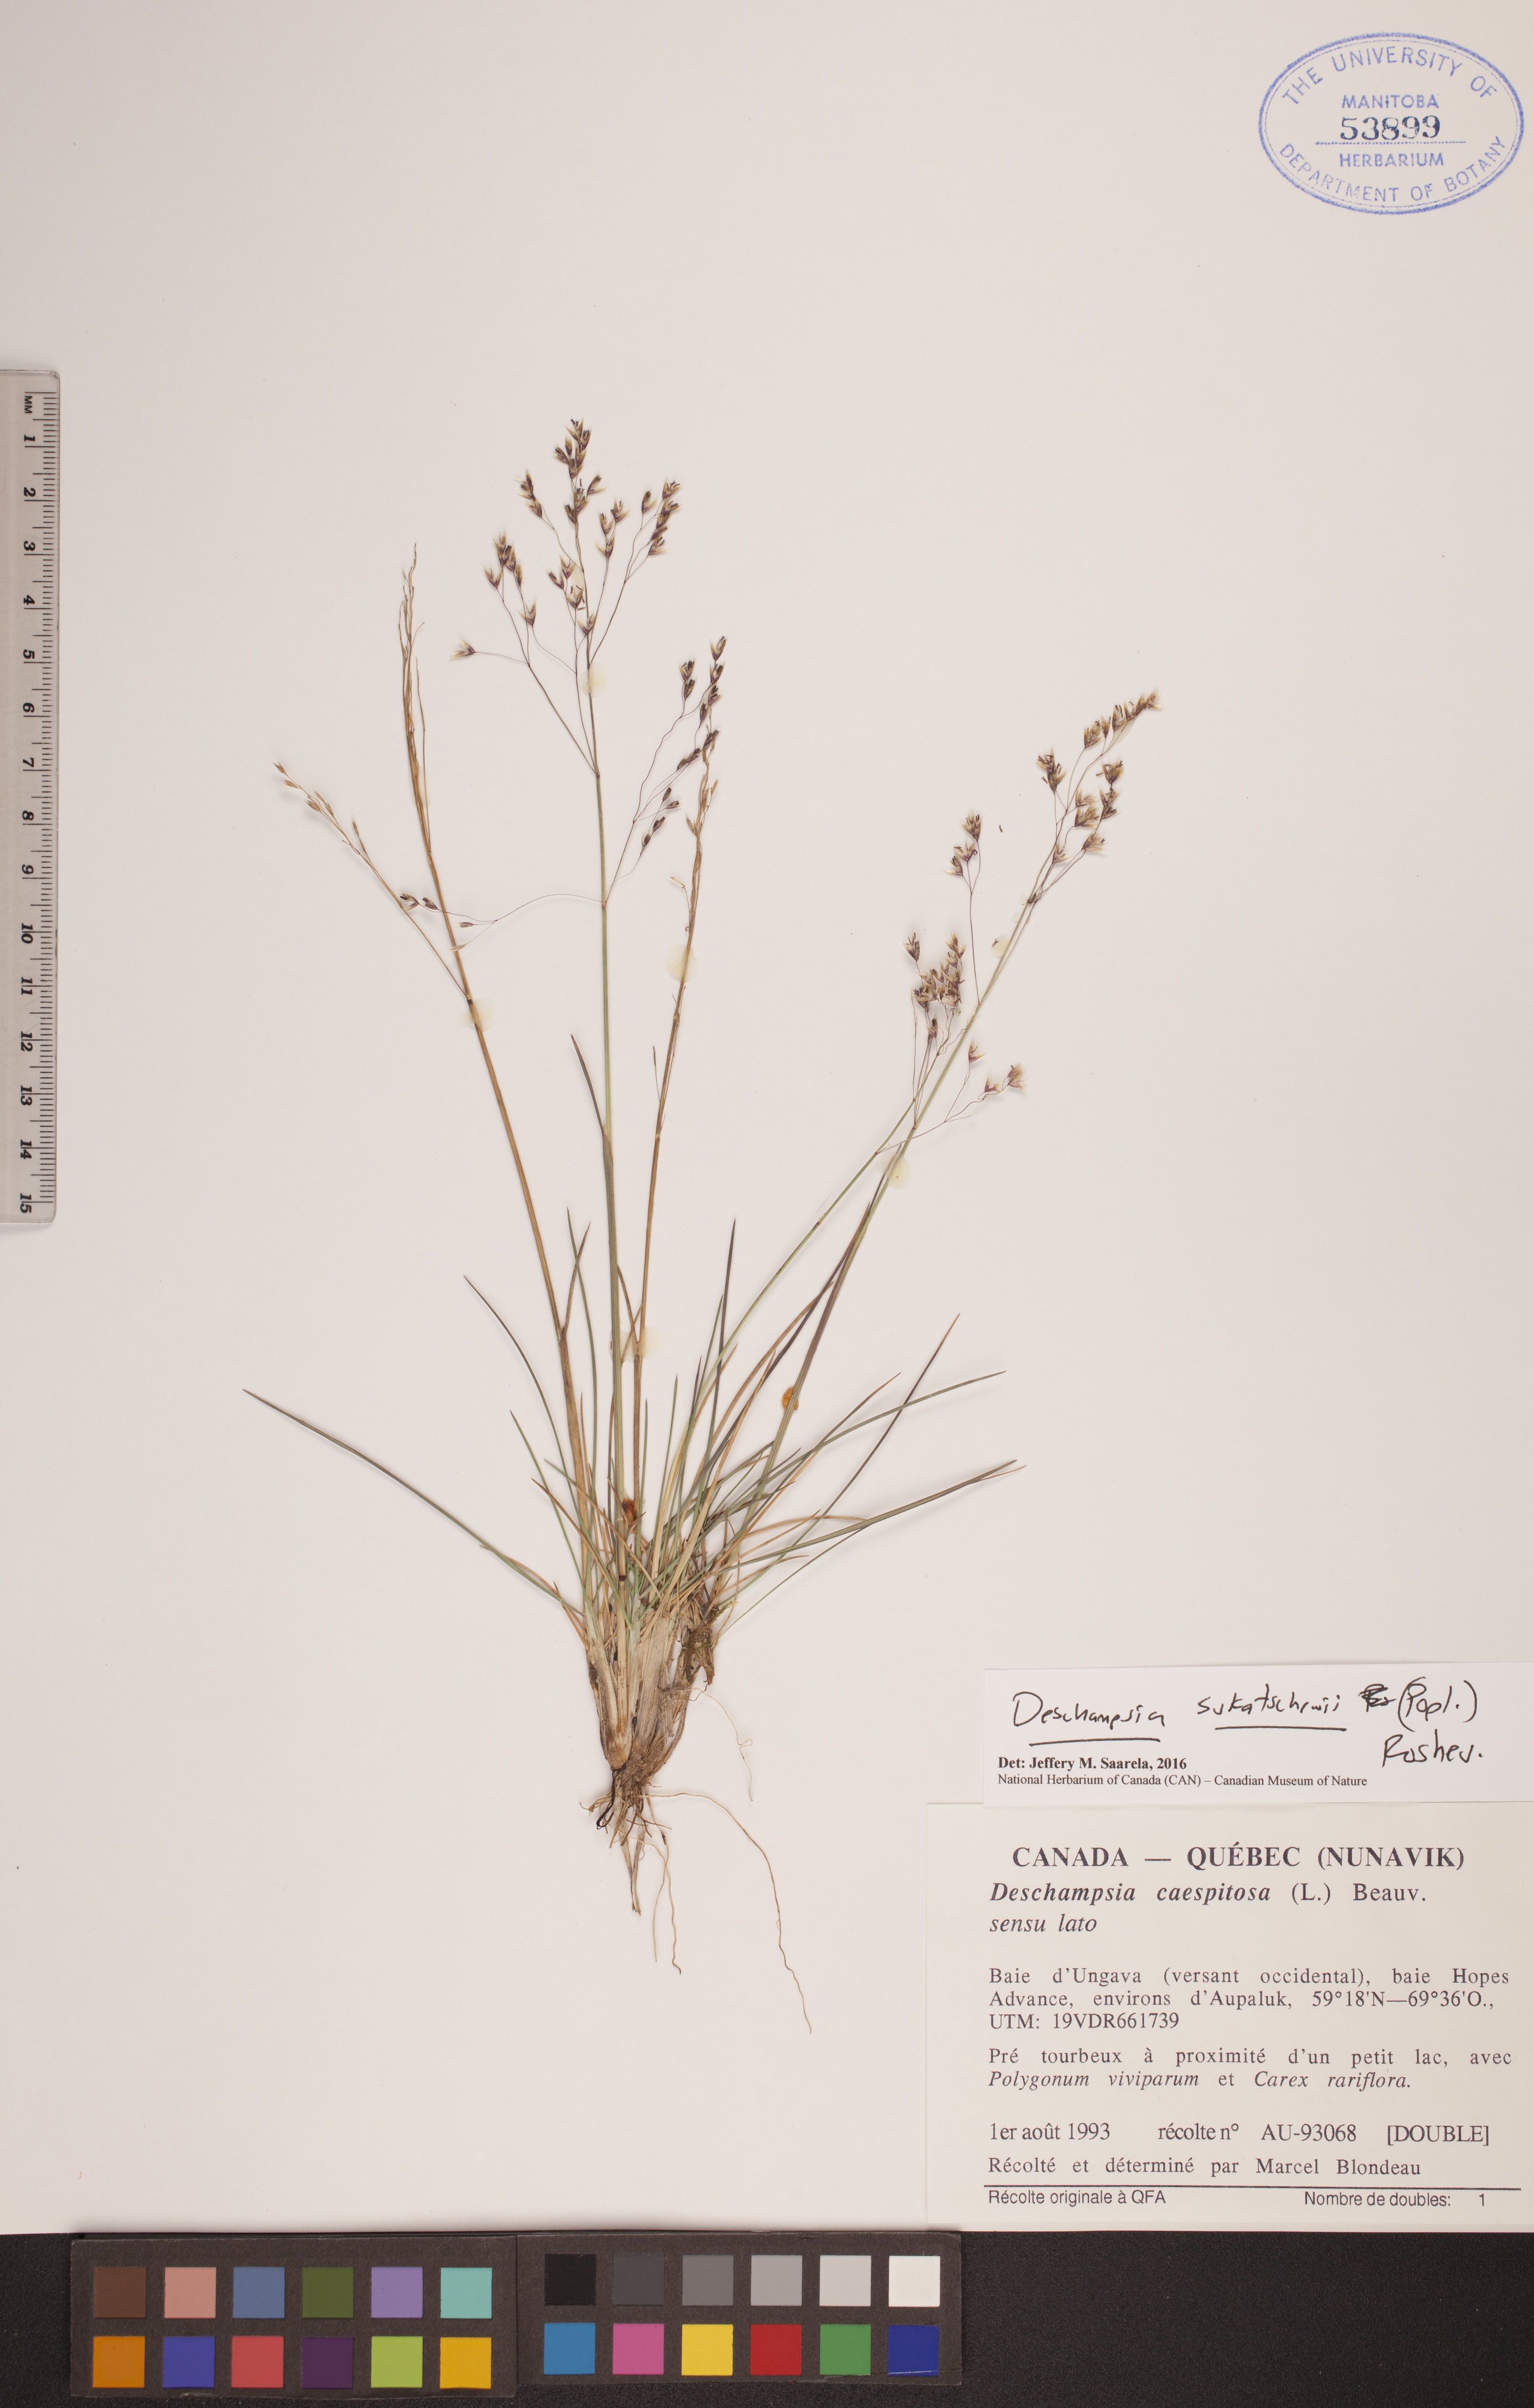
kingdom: Plantae
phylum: Tracheophyta
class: Liliopsida
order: Poales
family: Poaceae
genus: Deschampsia
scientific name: Deschampsia cespitosa
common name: Tufted hair-grass
